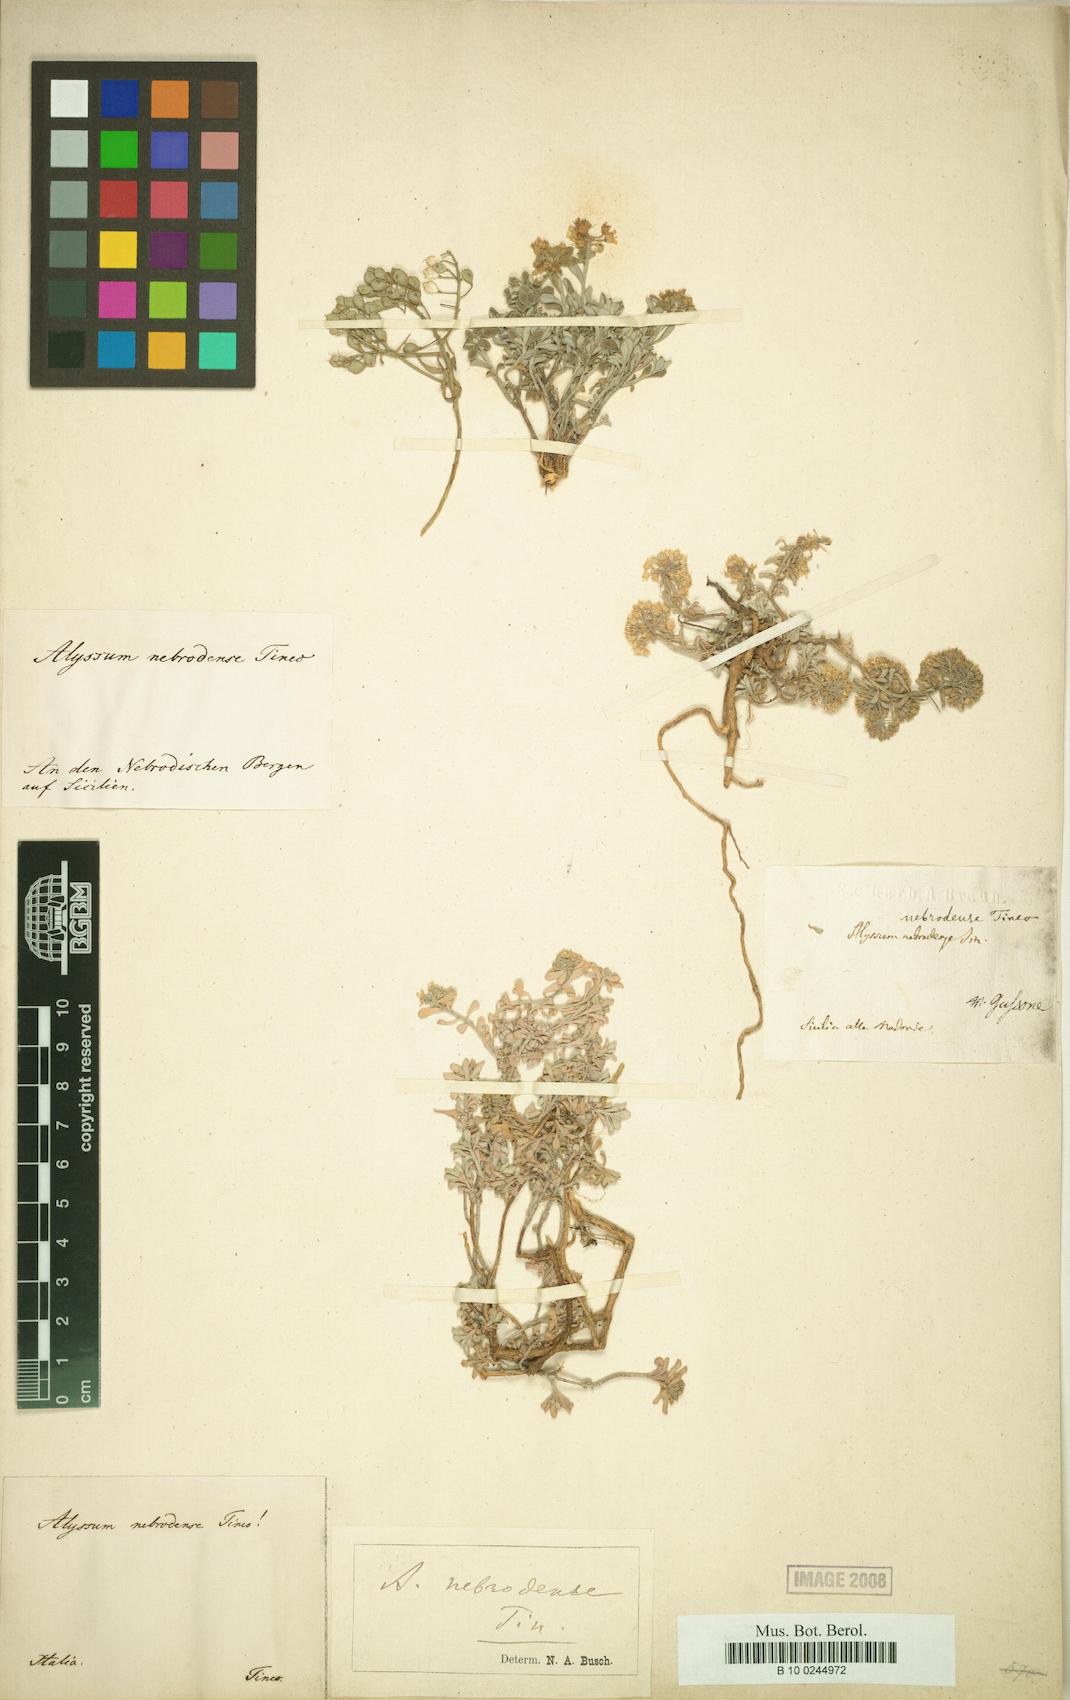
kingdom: Plantae
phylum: Tracheophyta
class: Magnoliopsida
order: Brassicales
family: Brassicaceae
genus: Odontarrhena
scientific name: Odontarrhena nebrodensis
